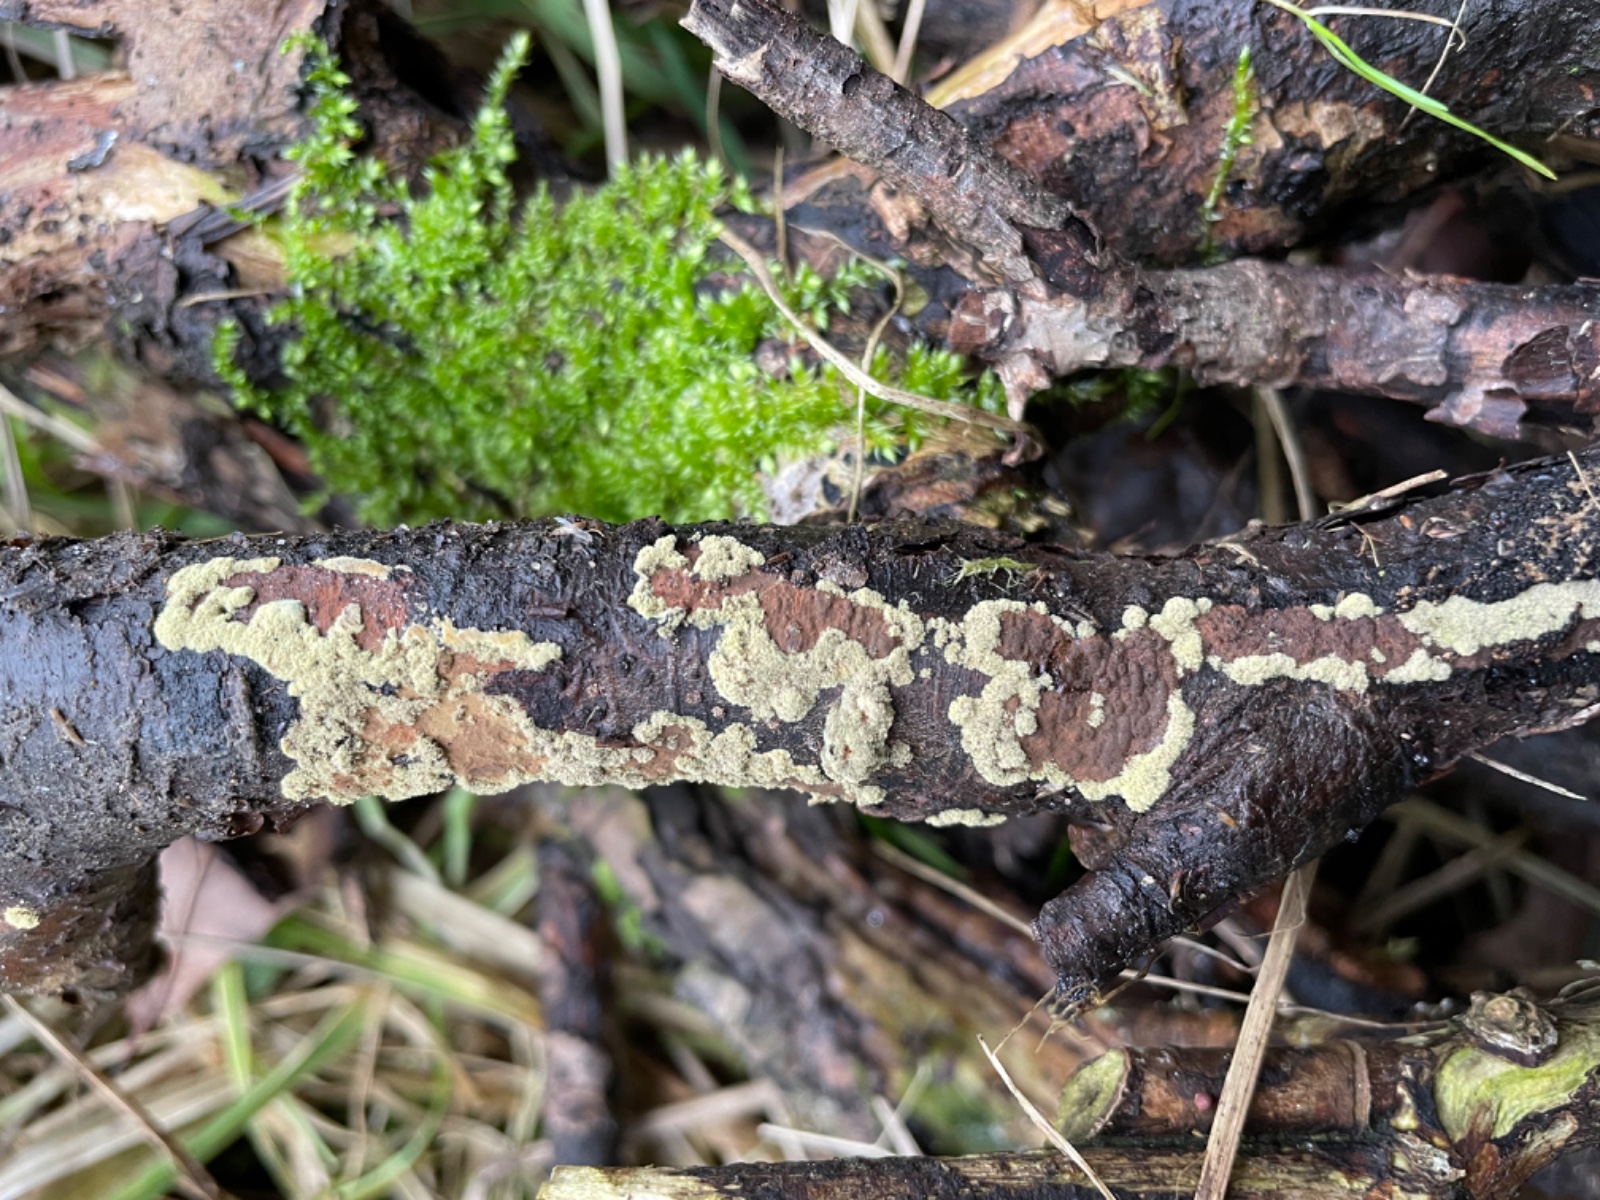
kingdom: Fungi
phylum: Ascomycota
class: Sordariomycetes
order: Xylariales
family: Hypoxylaceae
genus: Hypoxylon
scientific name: Hypoxylon rubiginosum
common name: rustfarvet kulbær
